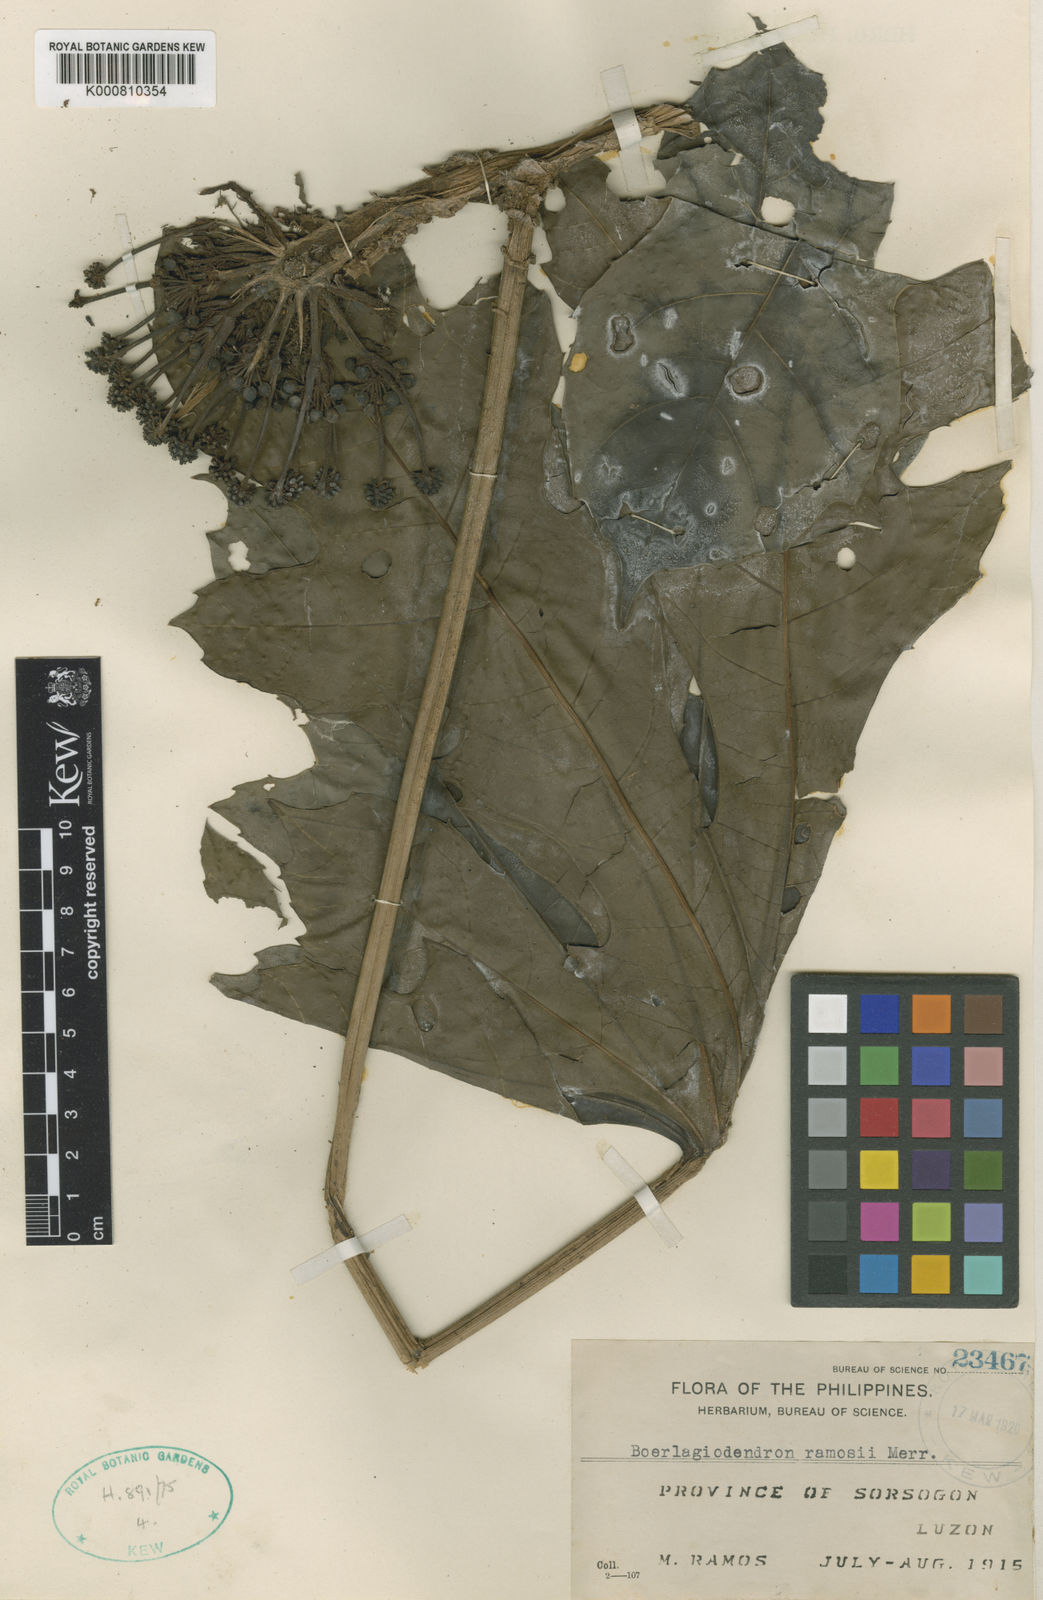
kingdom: Plantae
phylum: Tracheophyta
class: Magnoliopsida
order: Apiales
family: Araliaceae
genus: Osmoxylon
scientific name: Osmoxylon ramosii
